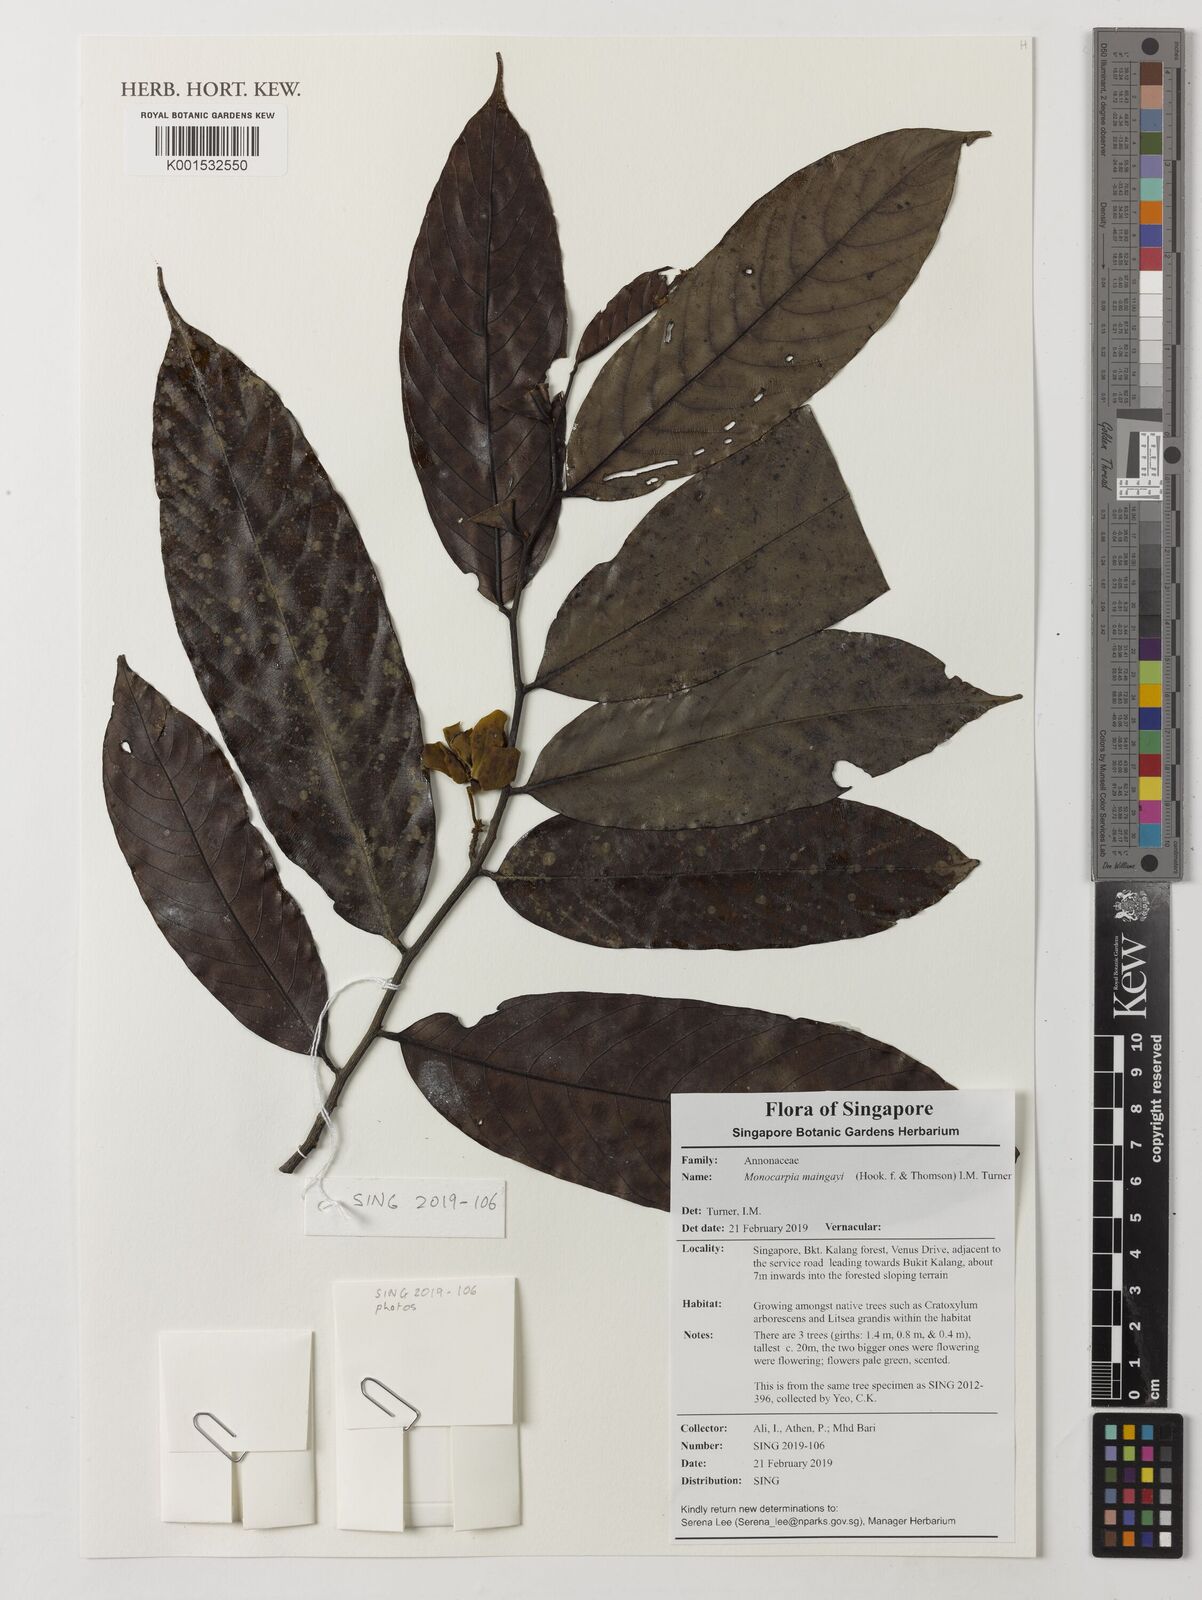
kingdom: Plantae
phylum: Tracheophyta
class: Magnoliopsida
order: Magnoliales
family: Annonaceae
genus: Cyathocalyx
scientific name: Cyathocalyx maingayi
